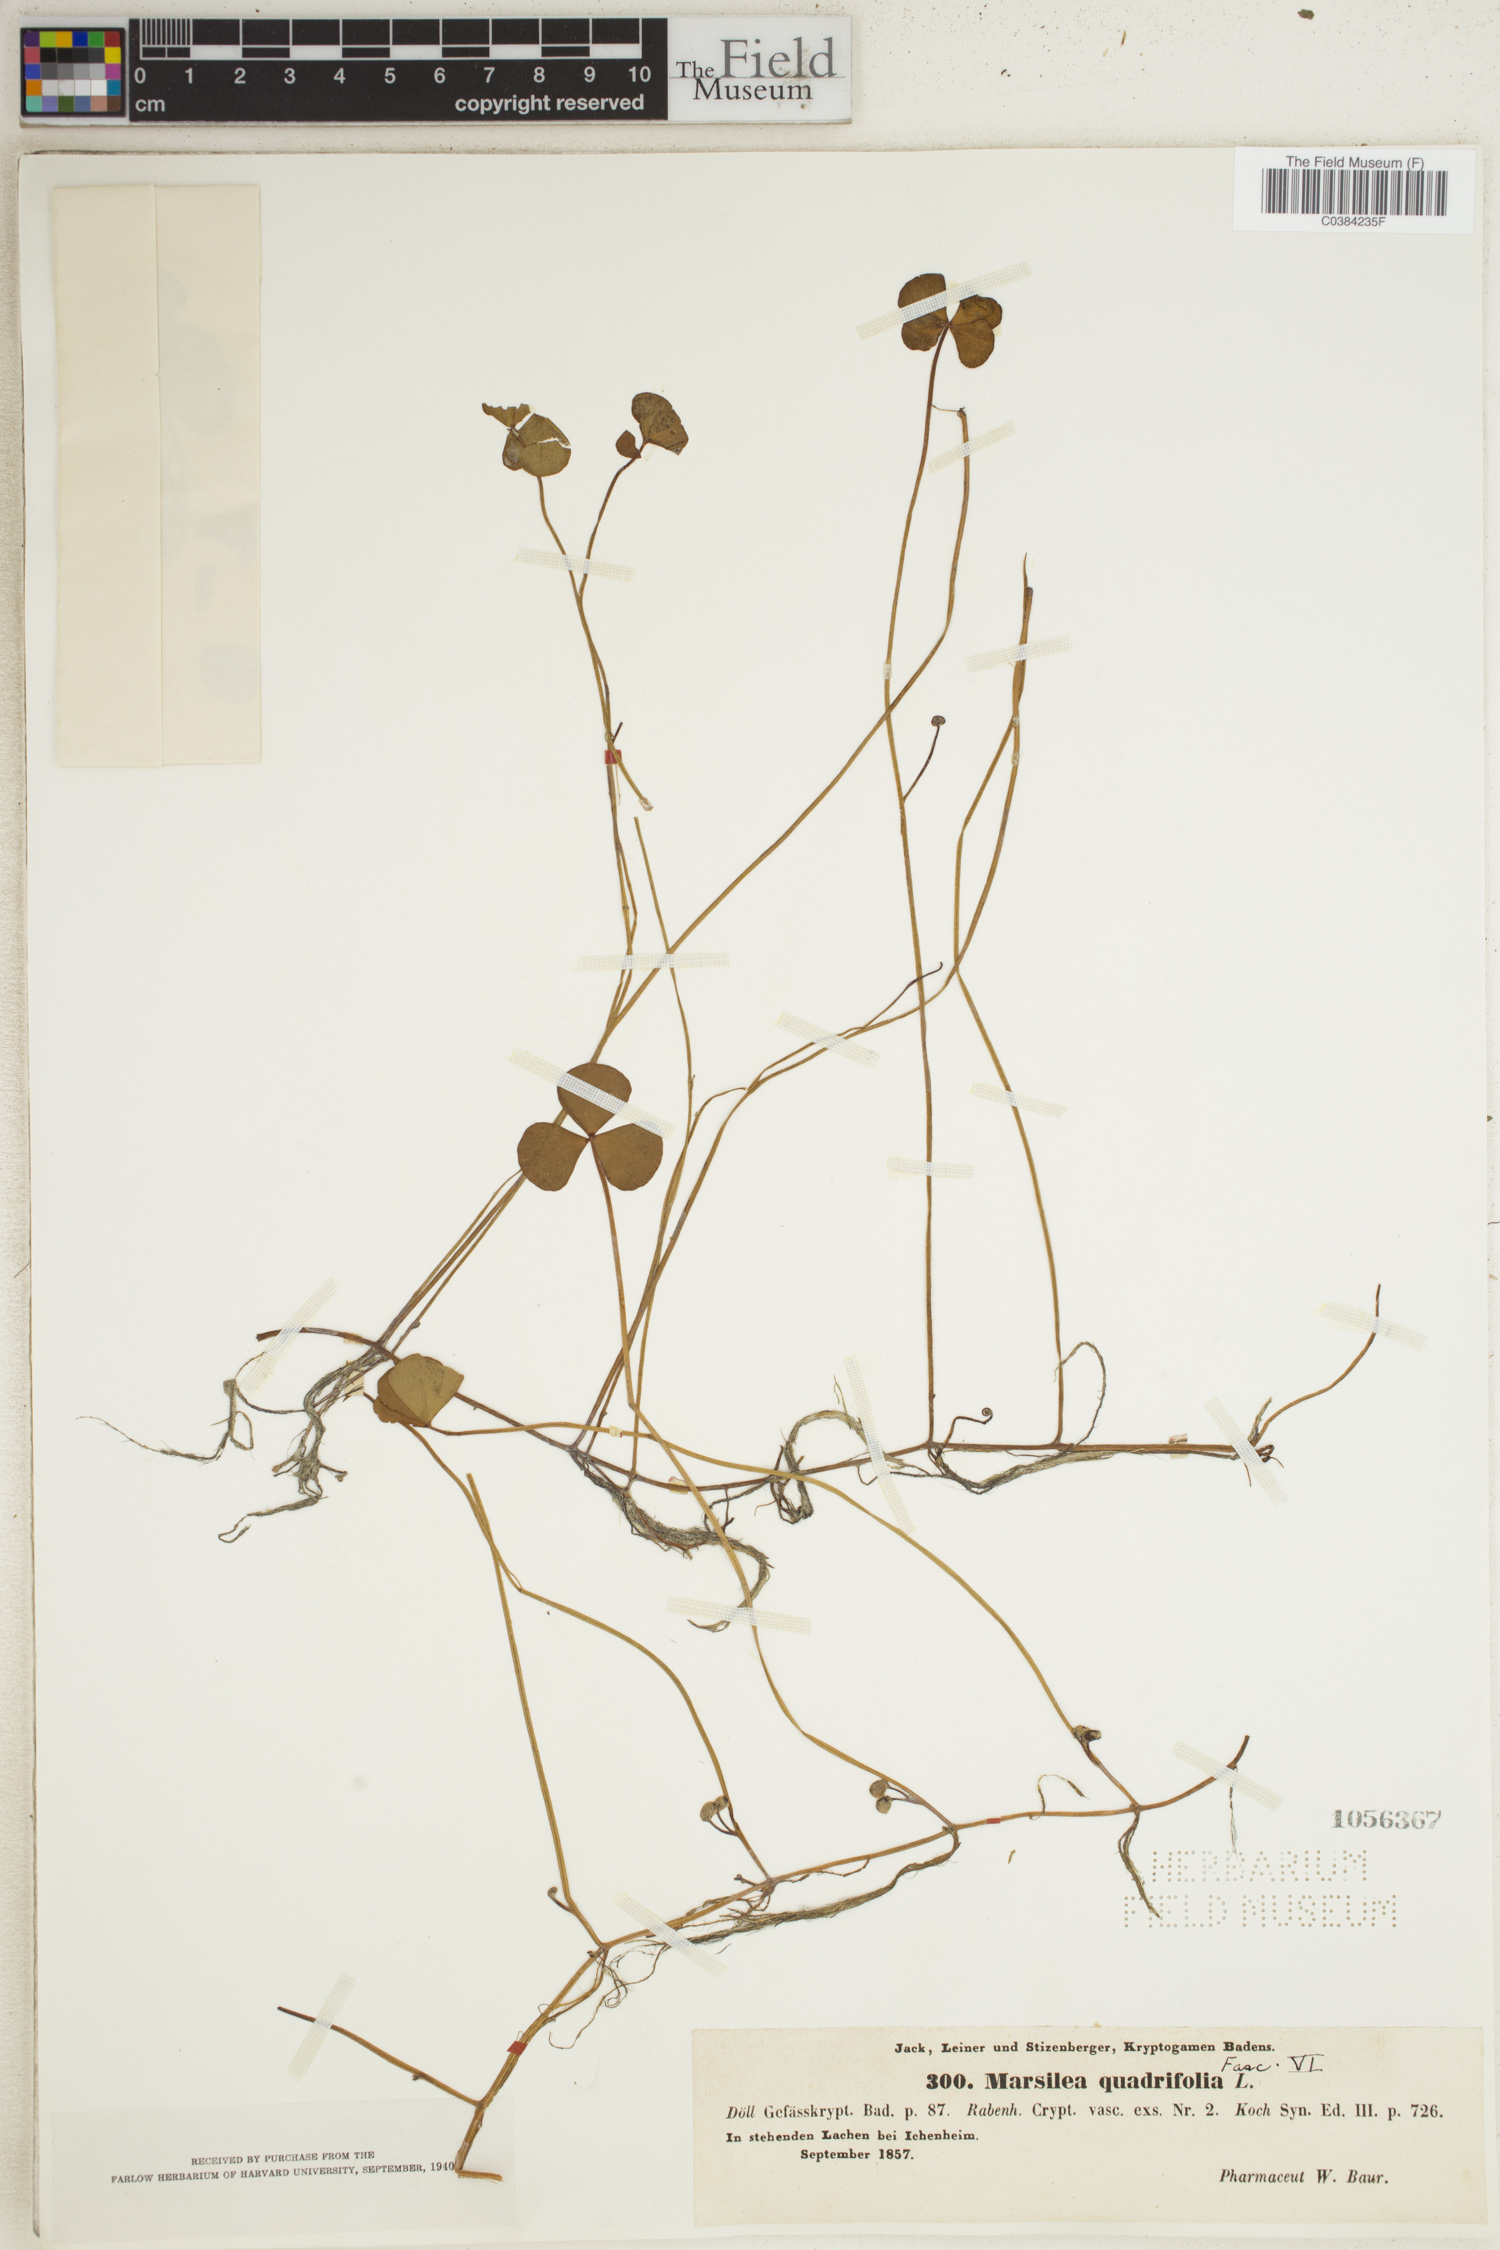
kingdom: Plantae
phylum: Tracheophyta
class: Polypodiopsida
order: Salviniales
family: Marsileaceae
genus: Marsilea
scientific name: Marsilea quadrifolia
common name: Water shamrock
